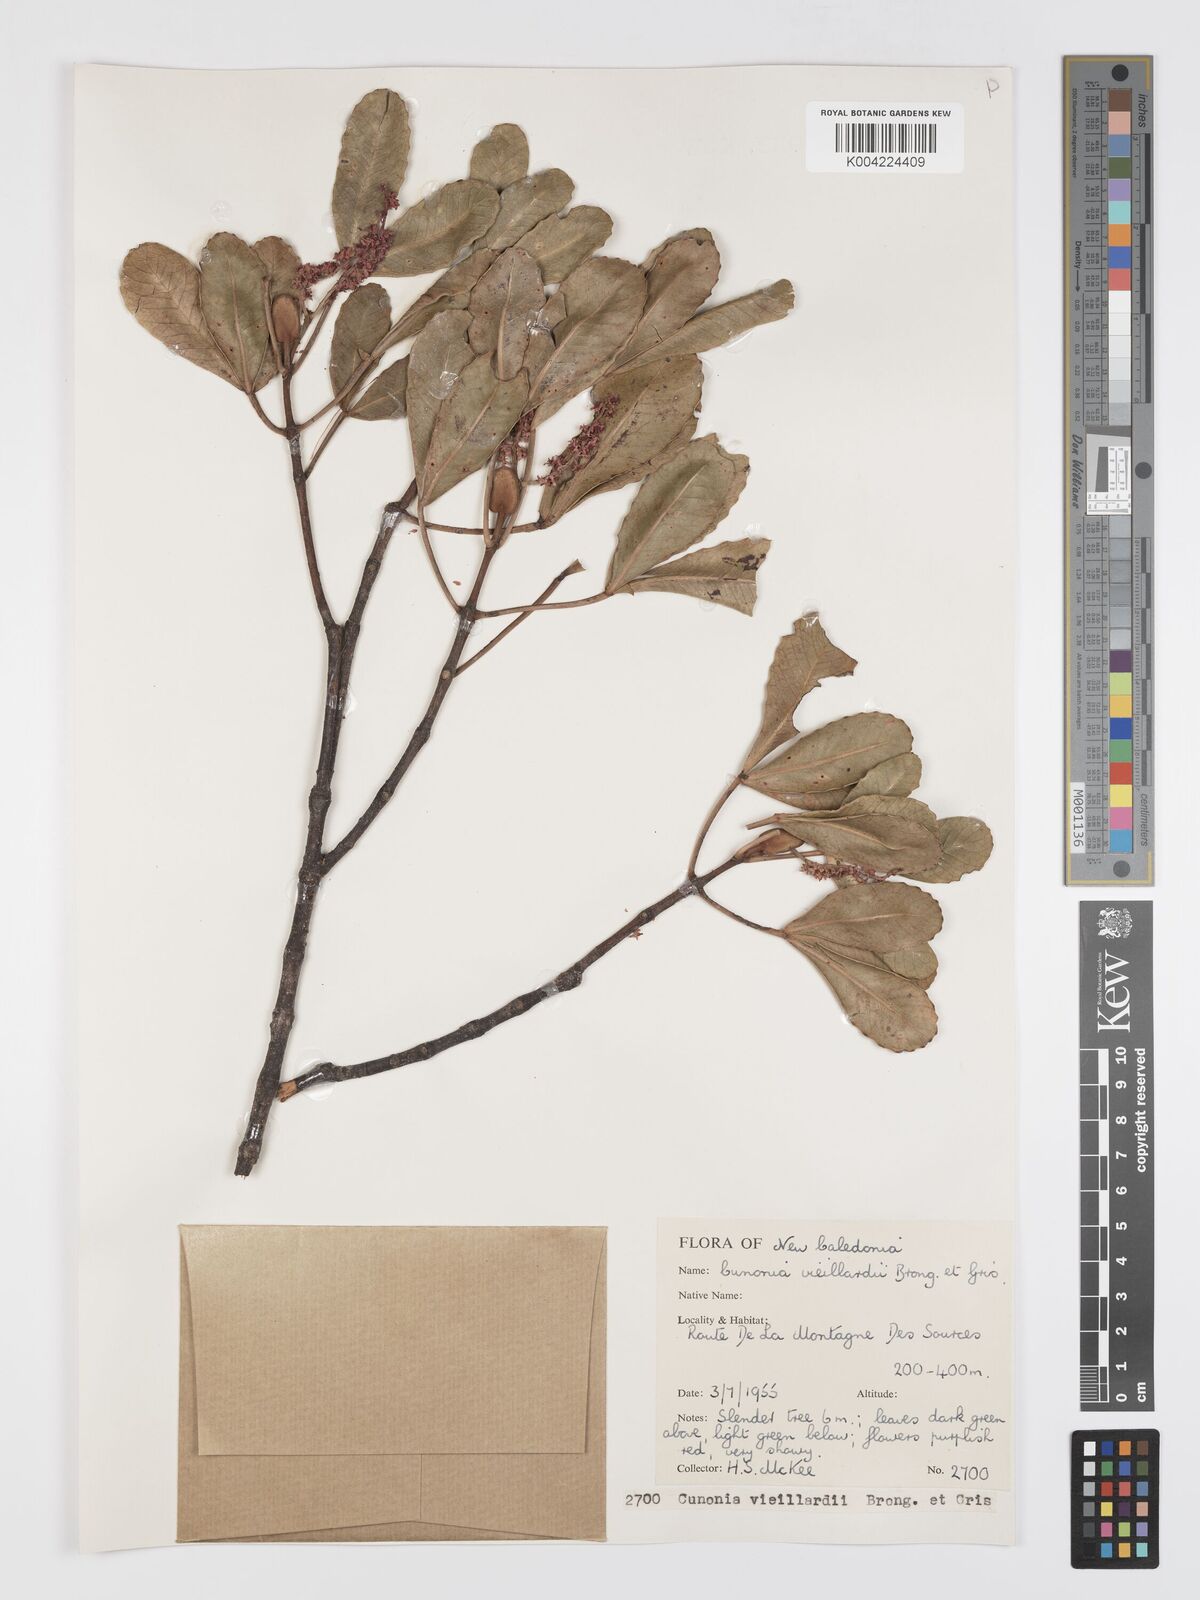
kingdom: Plantae
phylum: Tracheophyta
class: Magnoliopsida
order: Oxalidales
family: Cunoniaceae
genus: Cunonia
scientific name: Cunonia vieillardii
